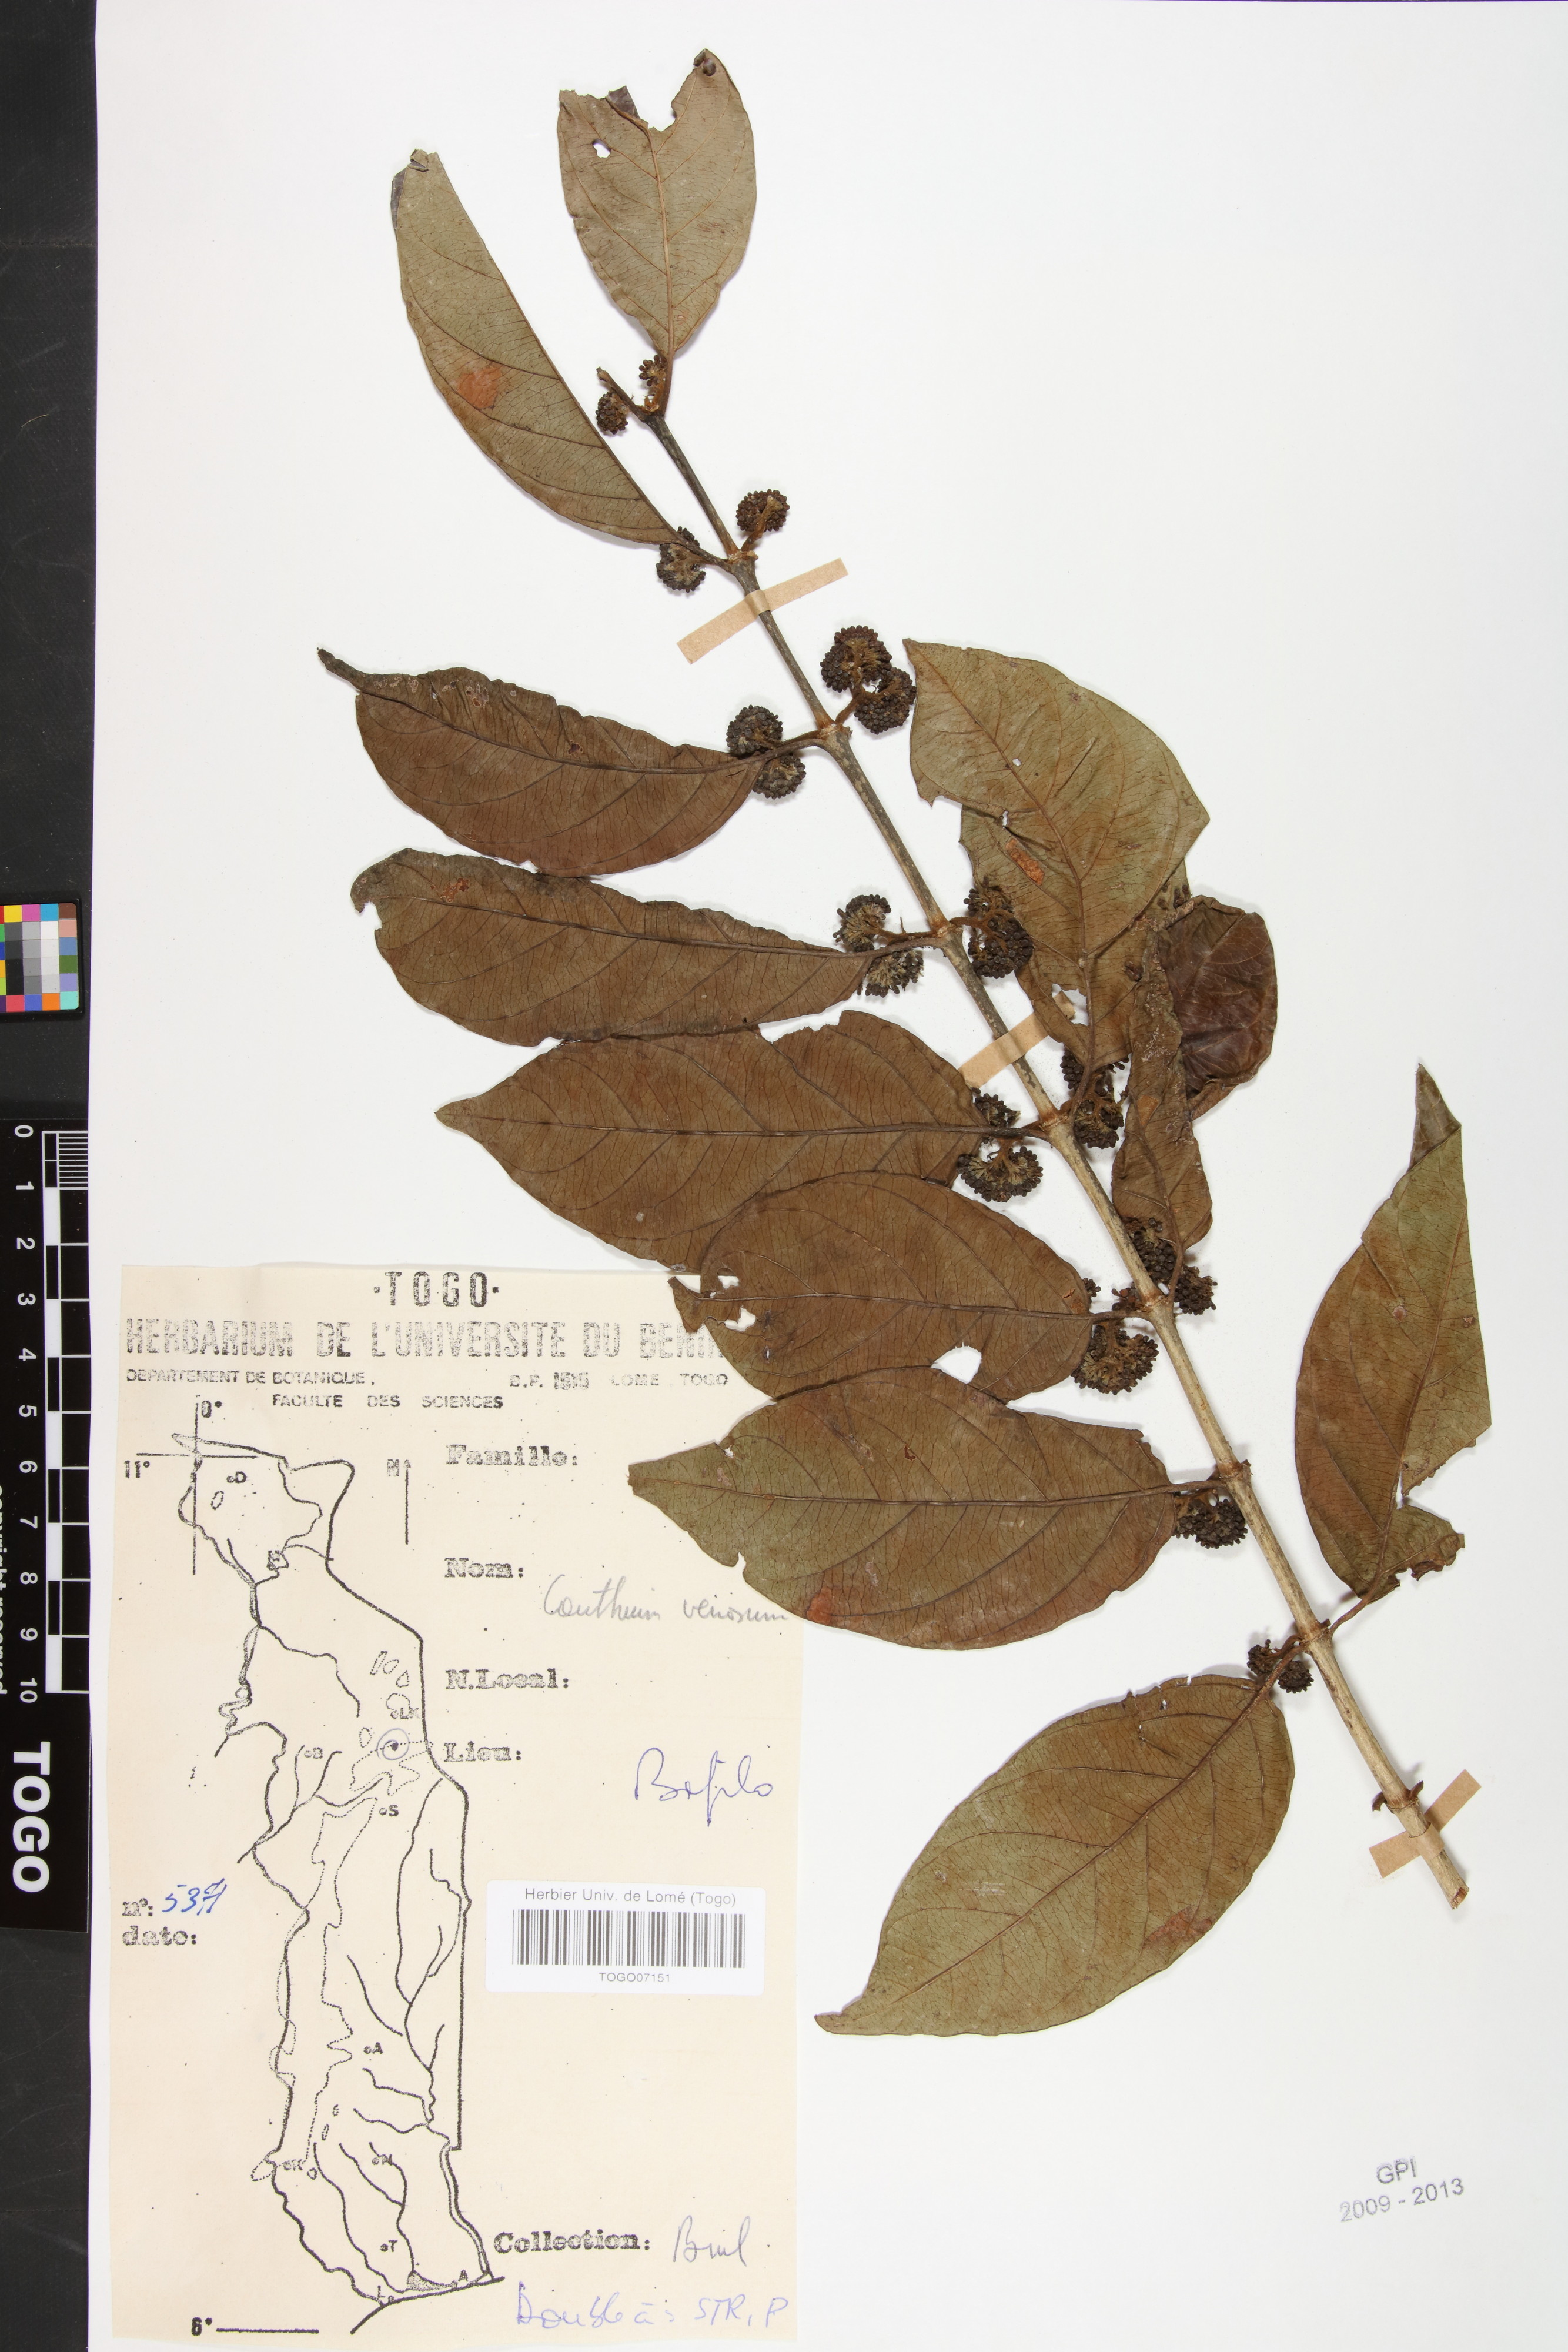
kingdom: Plantae
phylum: Tracheophyta
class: Magnoliopsida
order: Gentianales
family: Rubiaceae
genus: Keetia
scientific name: Keetia venosa
